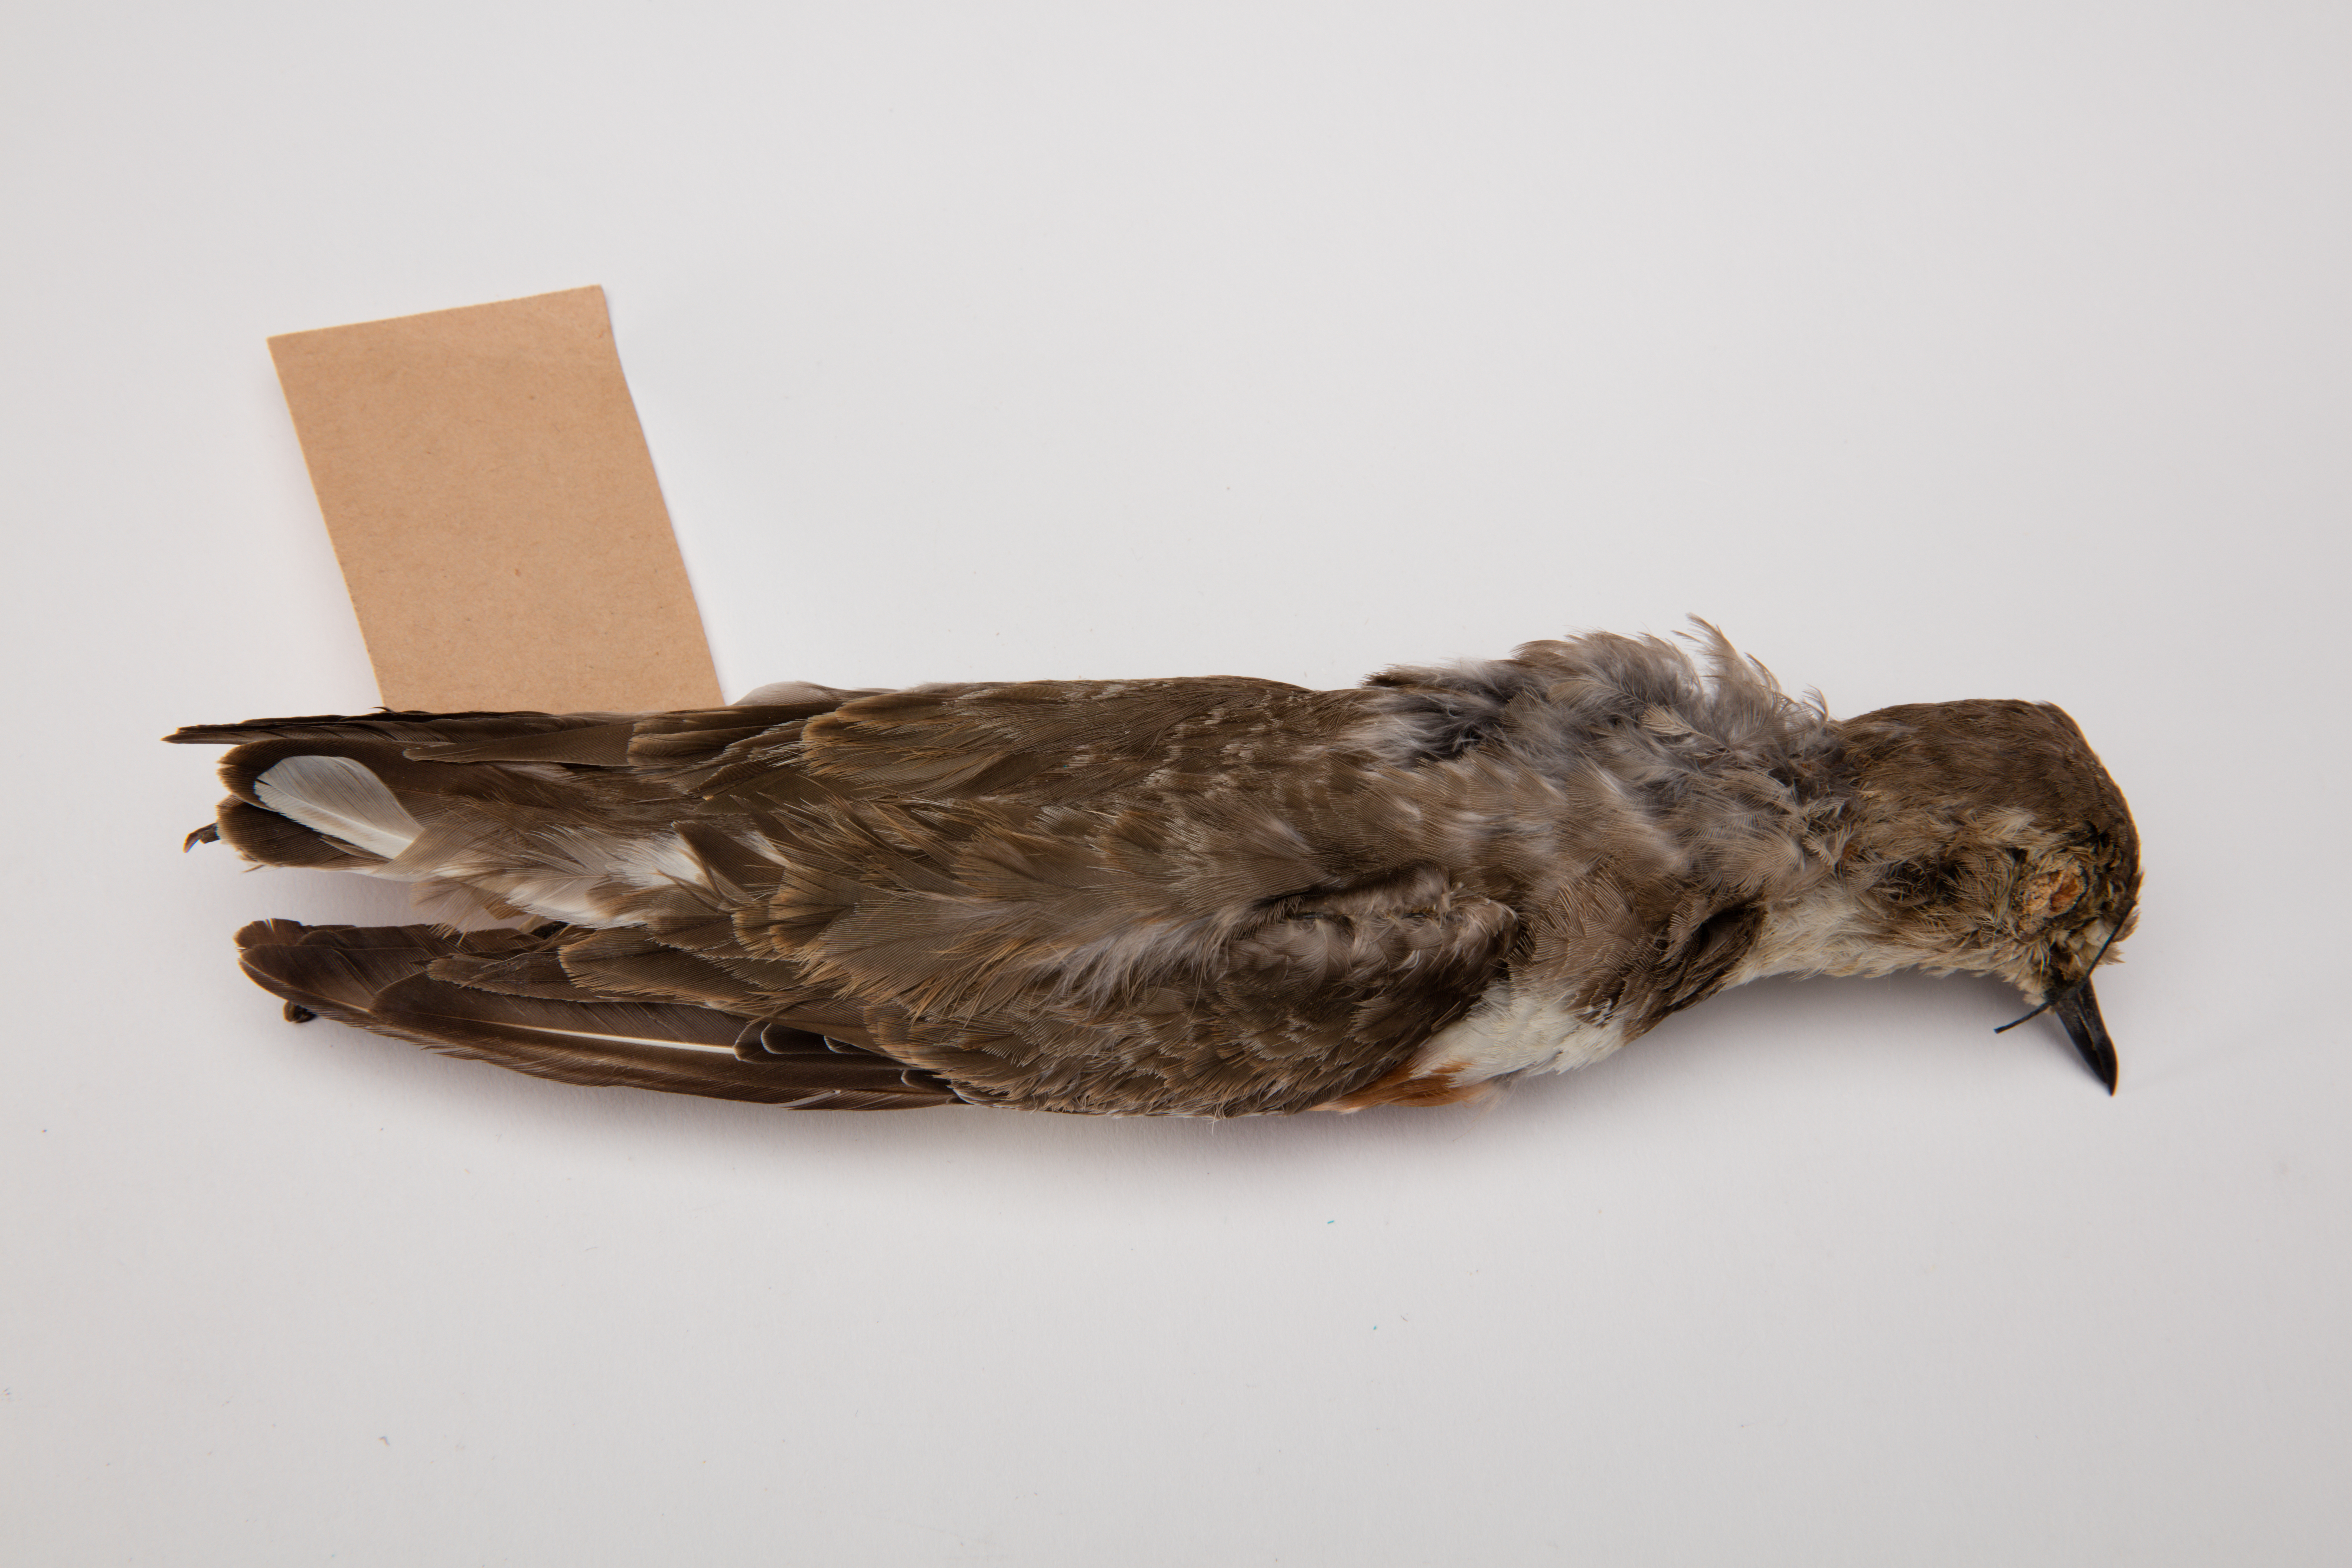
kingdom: Animalia
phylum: Chordata
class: Aves
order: Charadriiformes
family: Charadriidae
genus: Charadrius
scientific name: Charadrius bicinctus
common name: Double-banded plover
